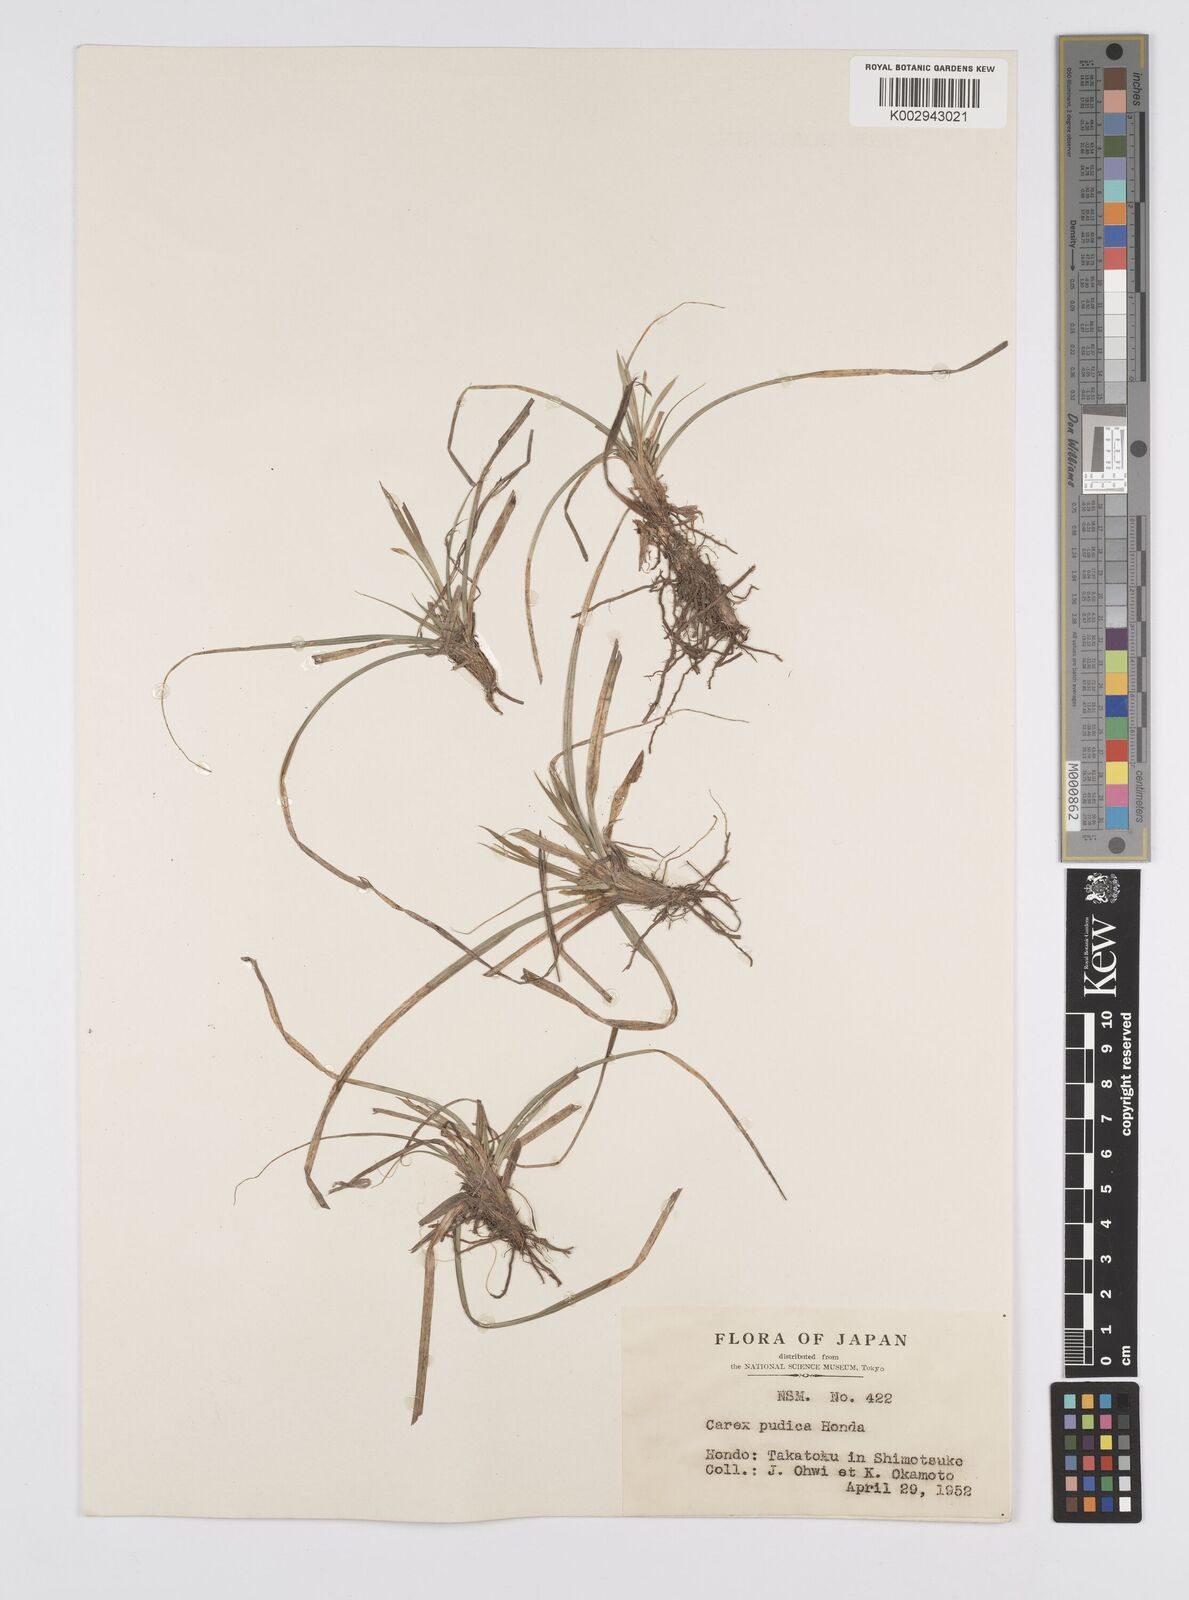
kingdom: Plantae
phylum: Tracheophyta
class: Liliopsida
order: Poales
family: Cyperaceae
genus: Carex
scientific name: Carex pudica
